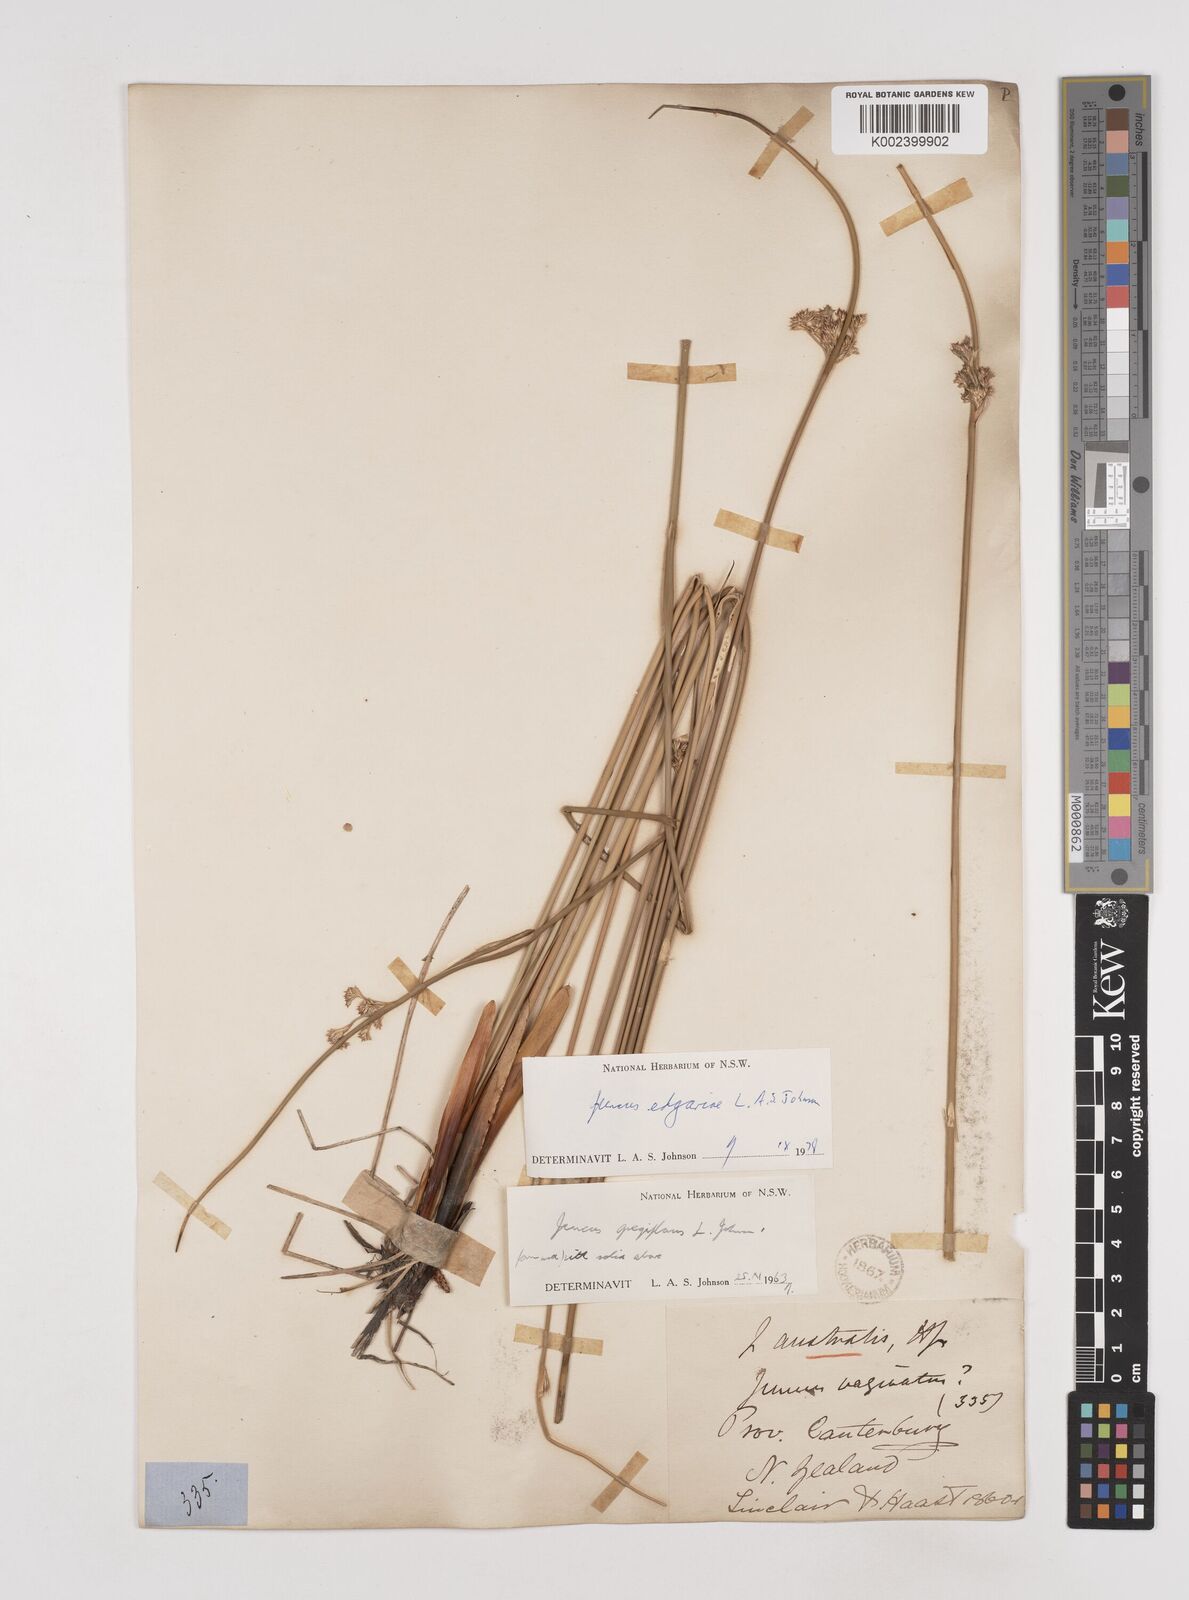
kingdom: Plantae
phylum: Tracheophyta
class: Liliopsida
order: Poales
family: Juncaceae
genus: Juncus
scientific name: Juncus edgariae
